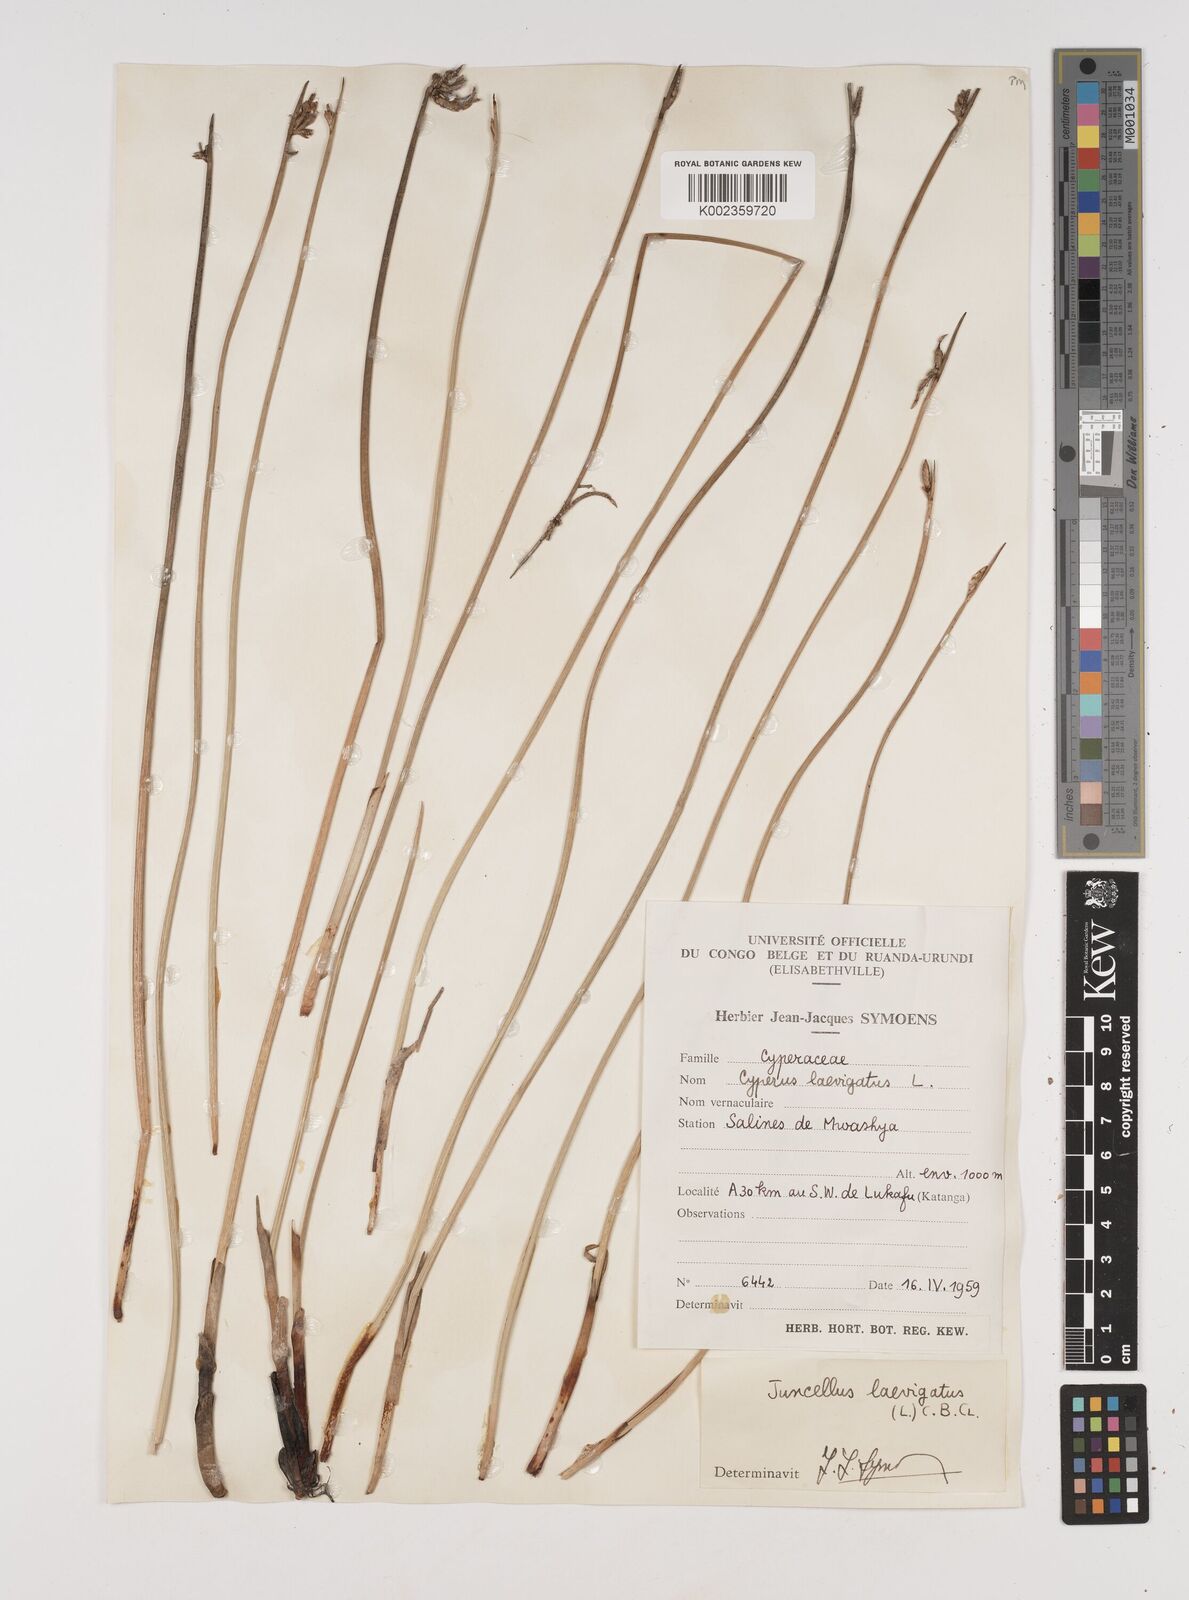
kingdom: Plantae
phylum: Tracheophyta
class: Liliopsida
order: Poales
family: Cyperaceae
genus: Cyperus
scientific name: Cyperus laevigatus
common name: Smooth flat sedge
